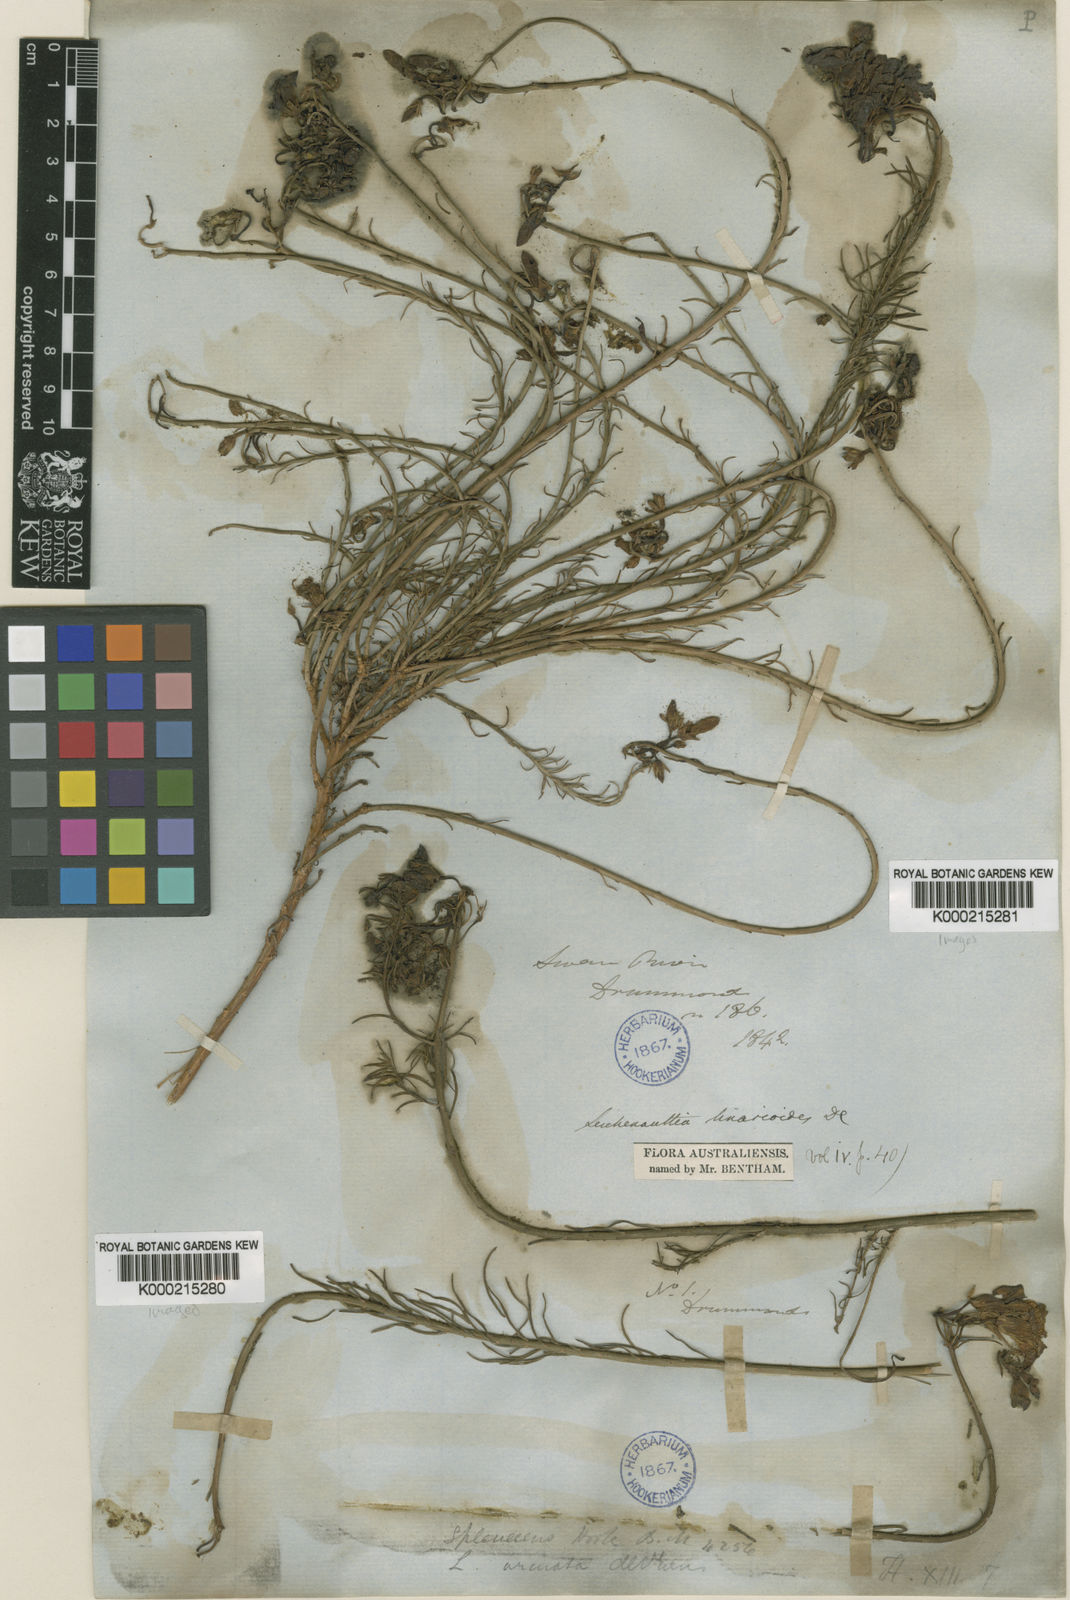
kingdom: Plantae
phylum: Tracheophyta
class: Magnoliopsida
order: Asterales
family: Goodeniaceae
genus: Leschenaultia
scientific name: Leschenaultia
